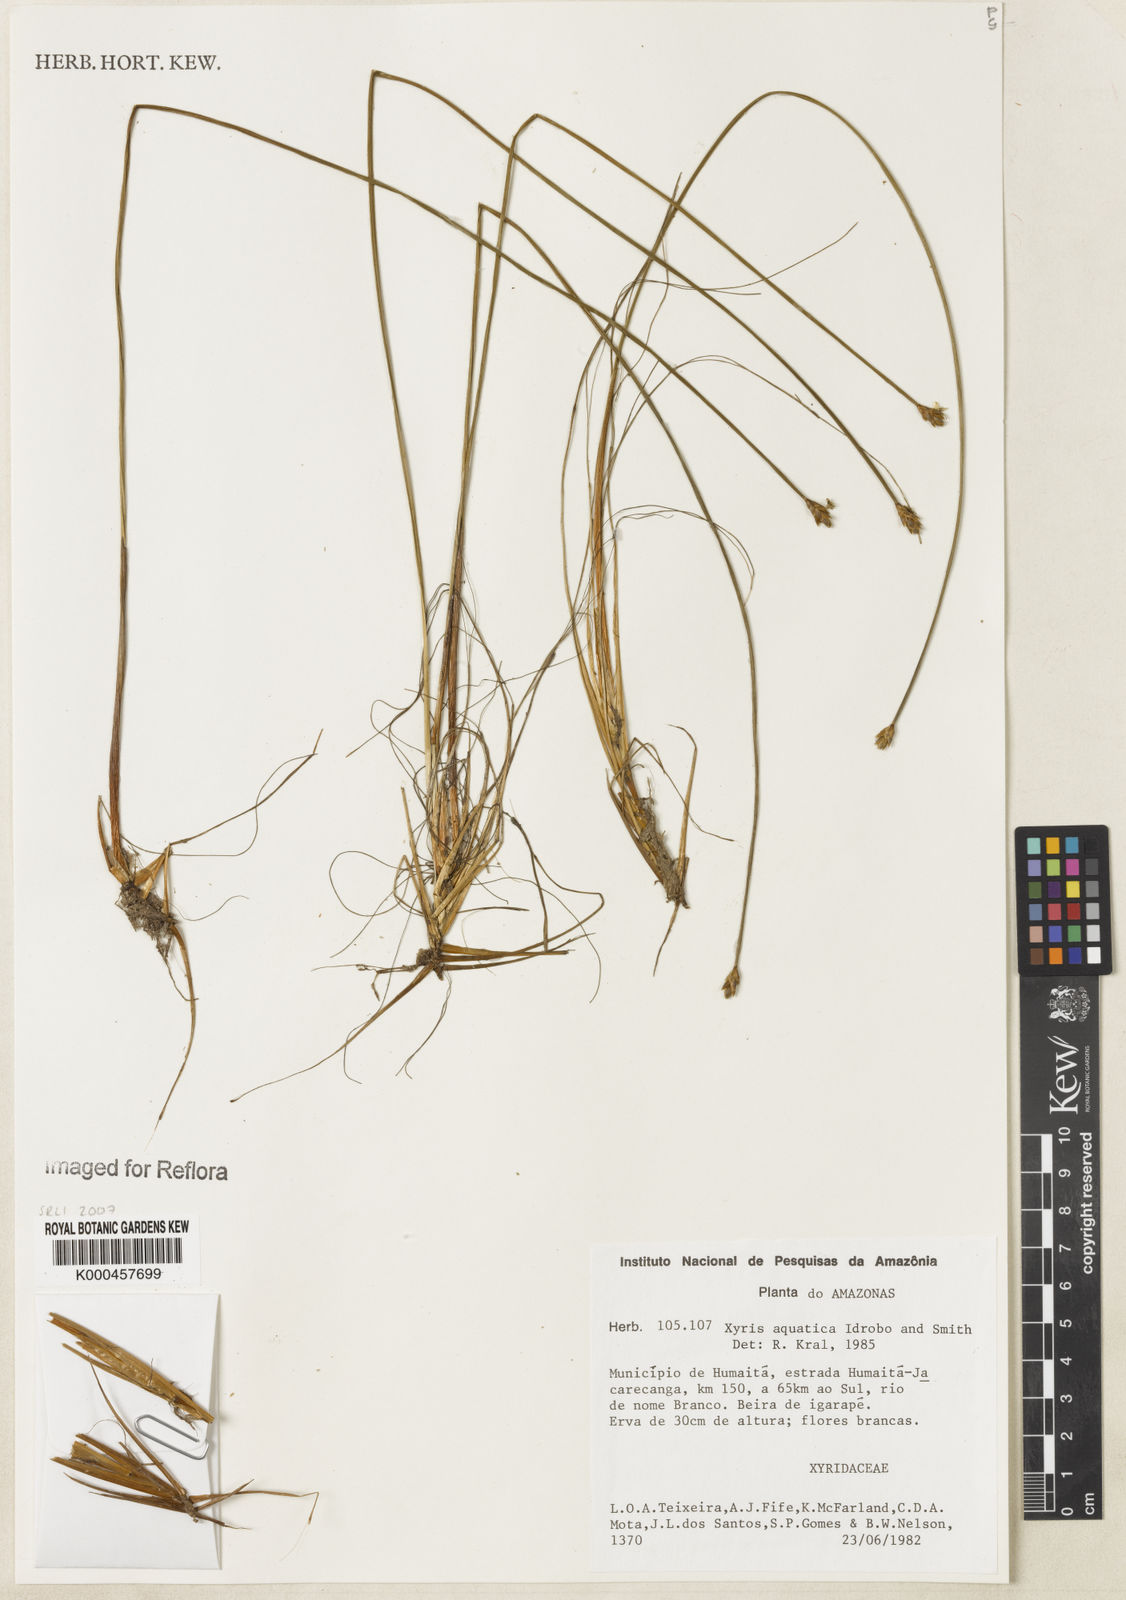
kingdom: Plantae
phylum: Tracheophyta
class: Liliopsida
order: Poales
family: Xyridaceae
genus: Xyris
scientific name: Xyris aquatica
